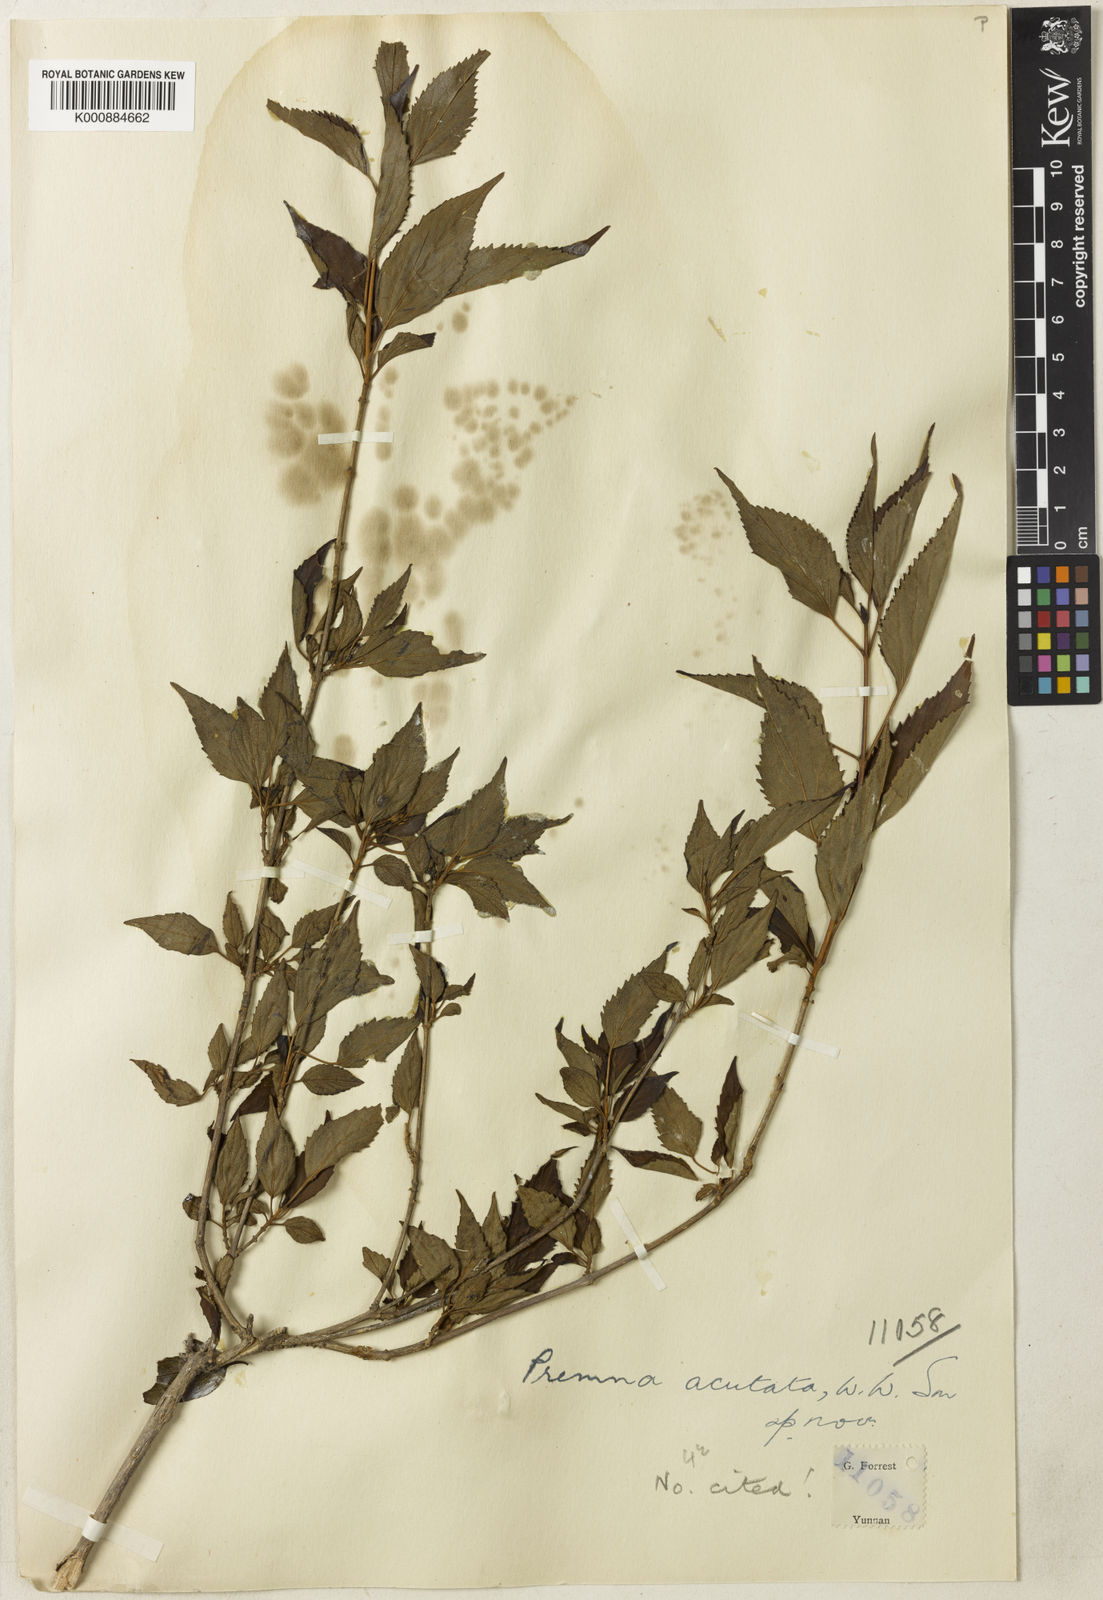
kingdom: Plantae
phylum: Tracheophyta
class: Magnoliopsida
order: Lamiales
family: Lamiaceae
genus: Premna
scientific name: Premna acutata
